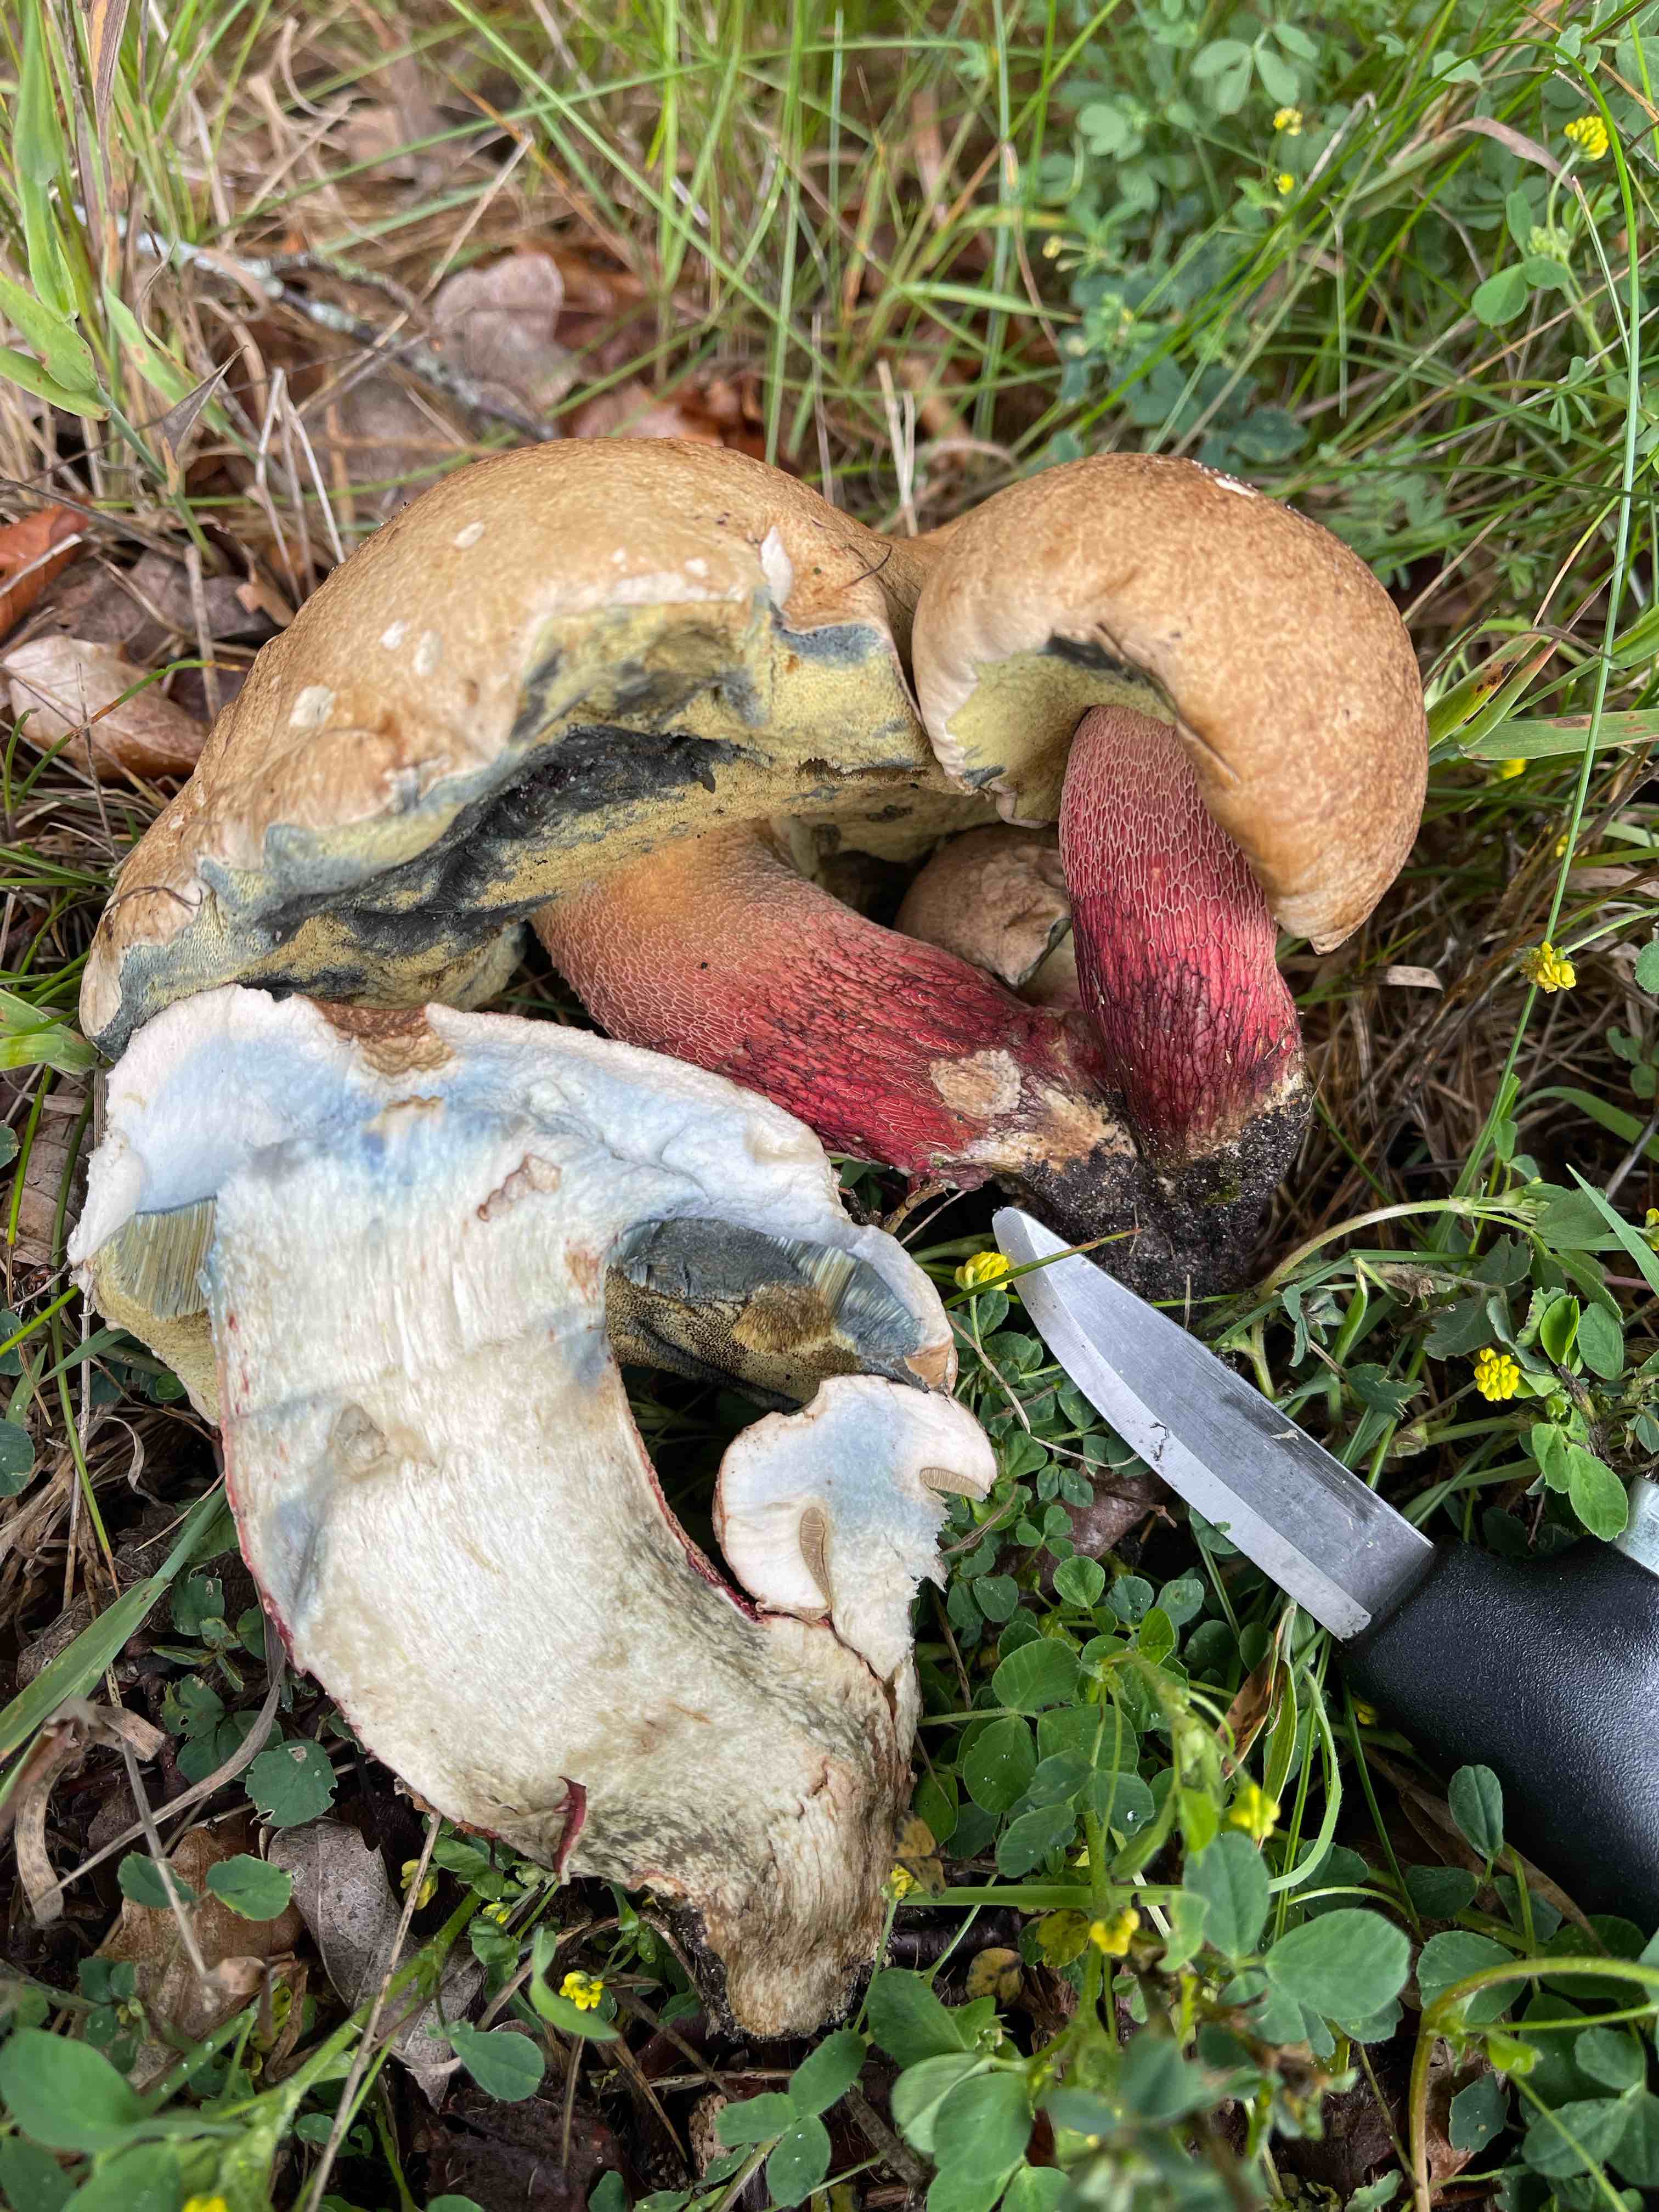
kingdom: Fungi
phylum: Basidiomycota
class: Agaricomycetes
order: Boletales
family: Boletaceae
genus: Caloboletus
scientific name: Caloboletus calopus
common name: skønfodet rørhat
